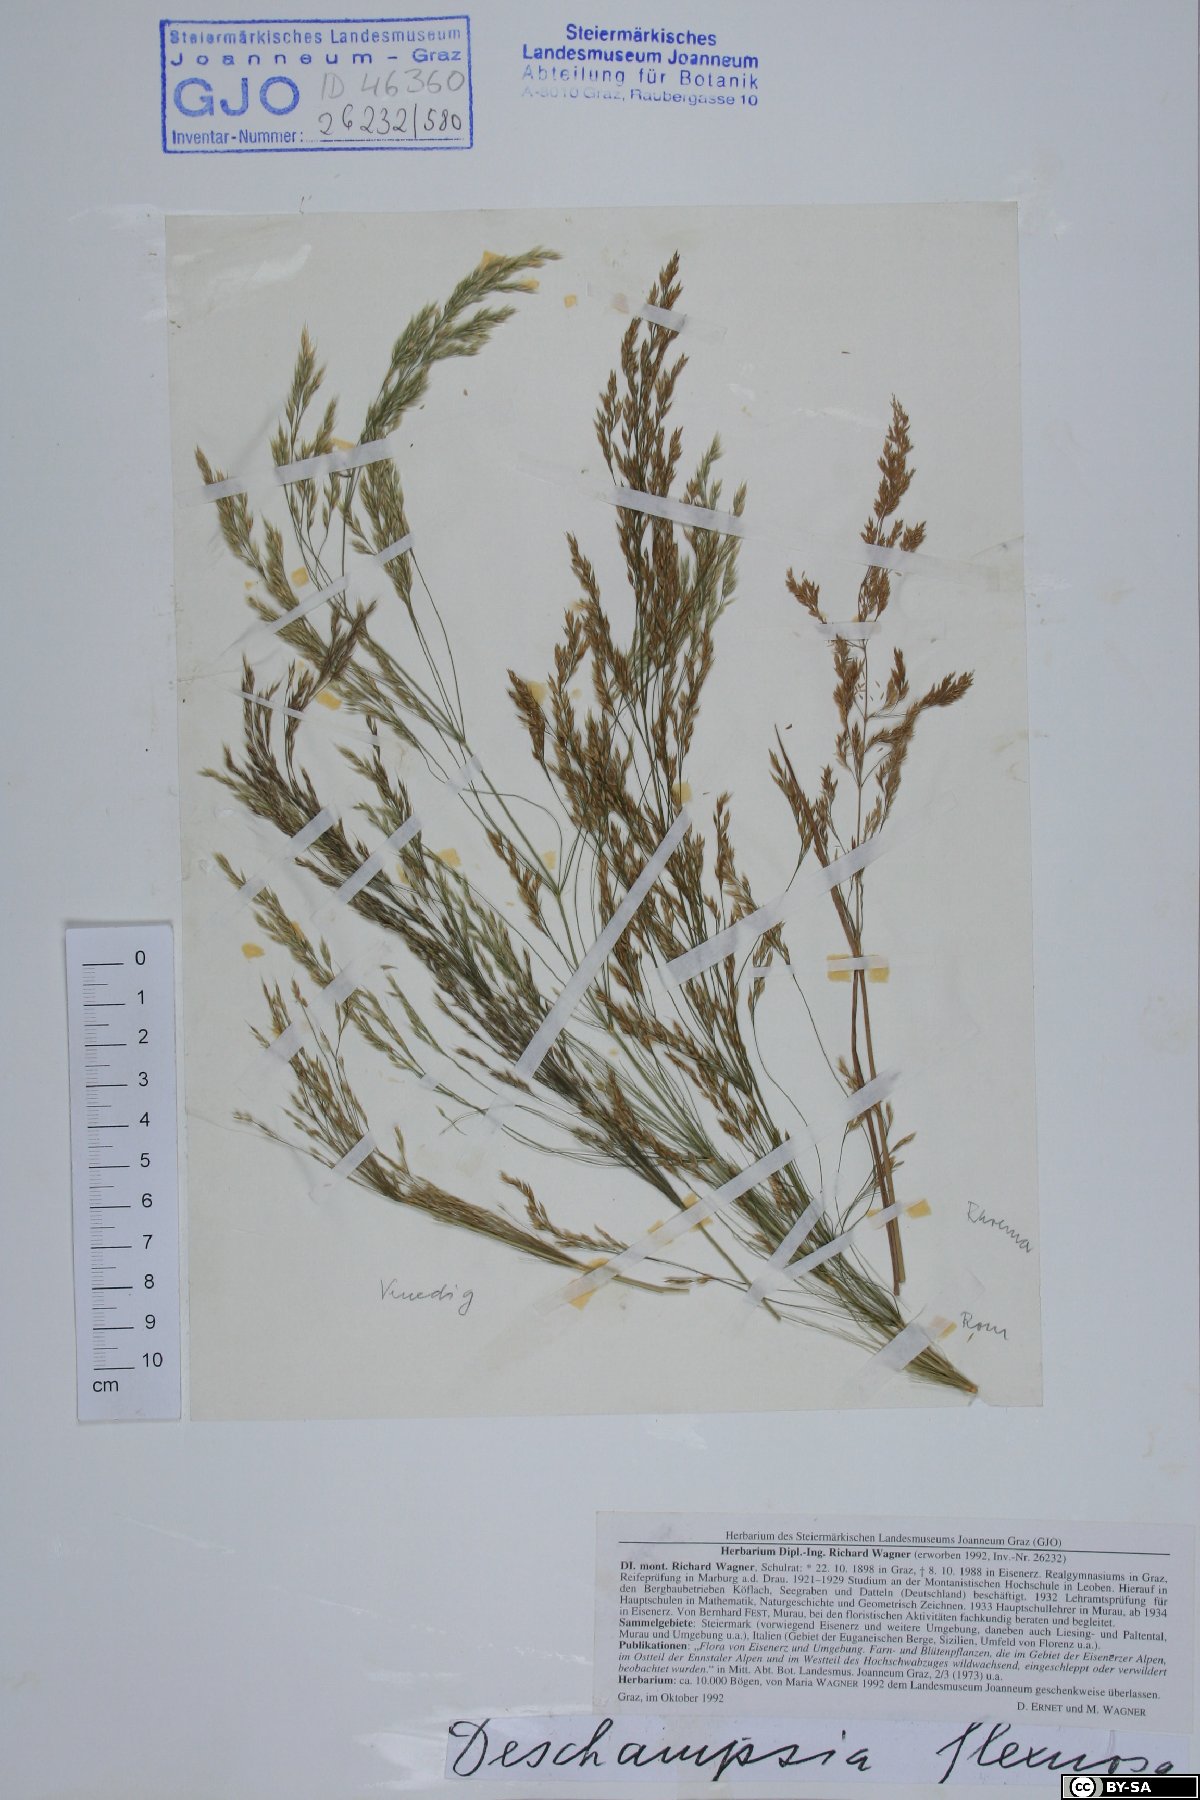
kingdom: Plantae
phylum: Tracheophyta
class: Liliopsida
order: Poales
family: Poaceae
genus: Avenella
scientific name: Avenella flexuosa
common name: Wavy hairgrass
